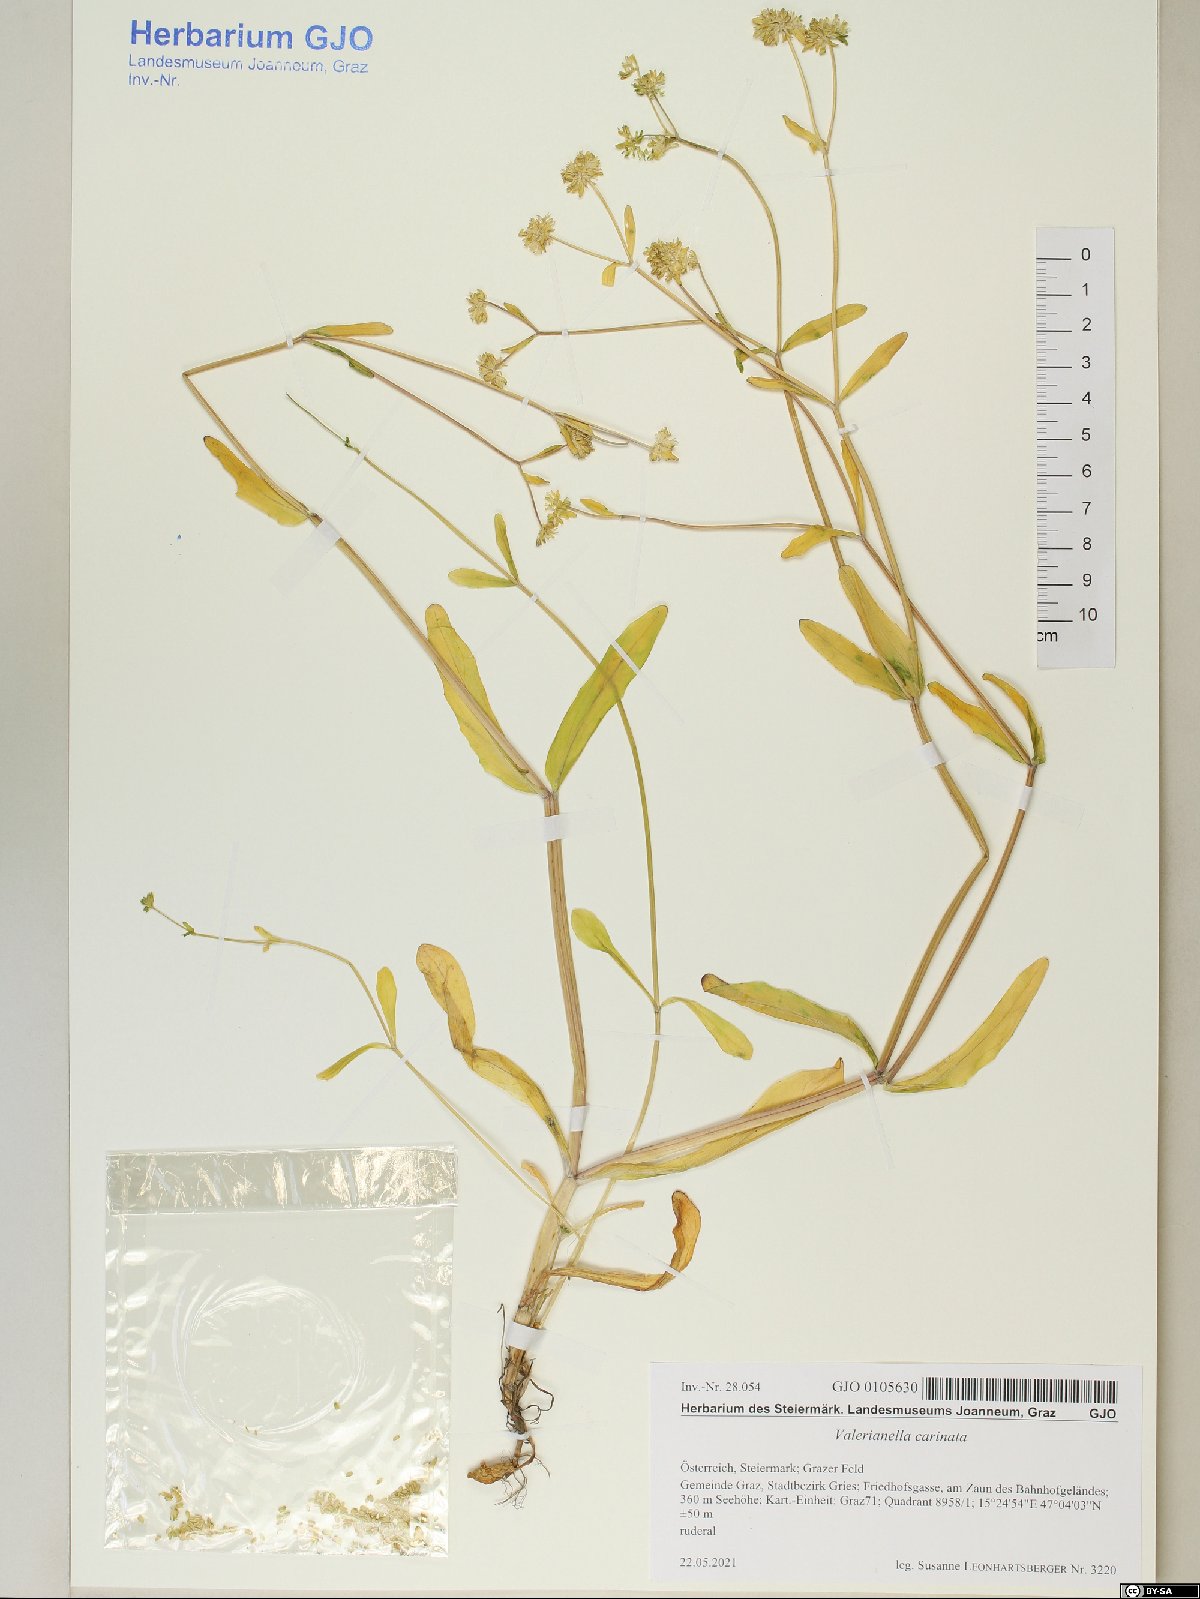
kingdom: Plantae
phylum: Tracheophyta
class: Magnoliopsida
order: Dipsacales
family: Caprifoliaceae
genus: Valerianella
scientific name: Valerianella carinata
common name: Keeled-fruited cornsalad
